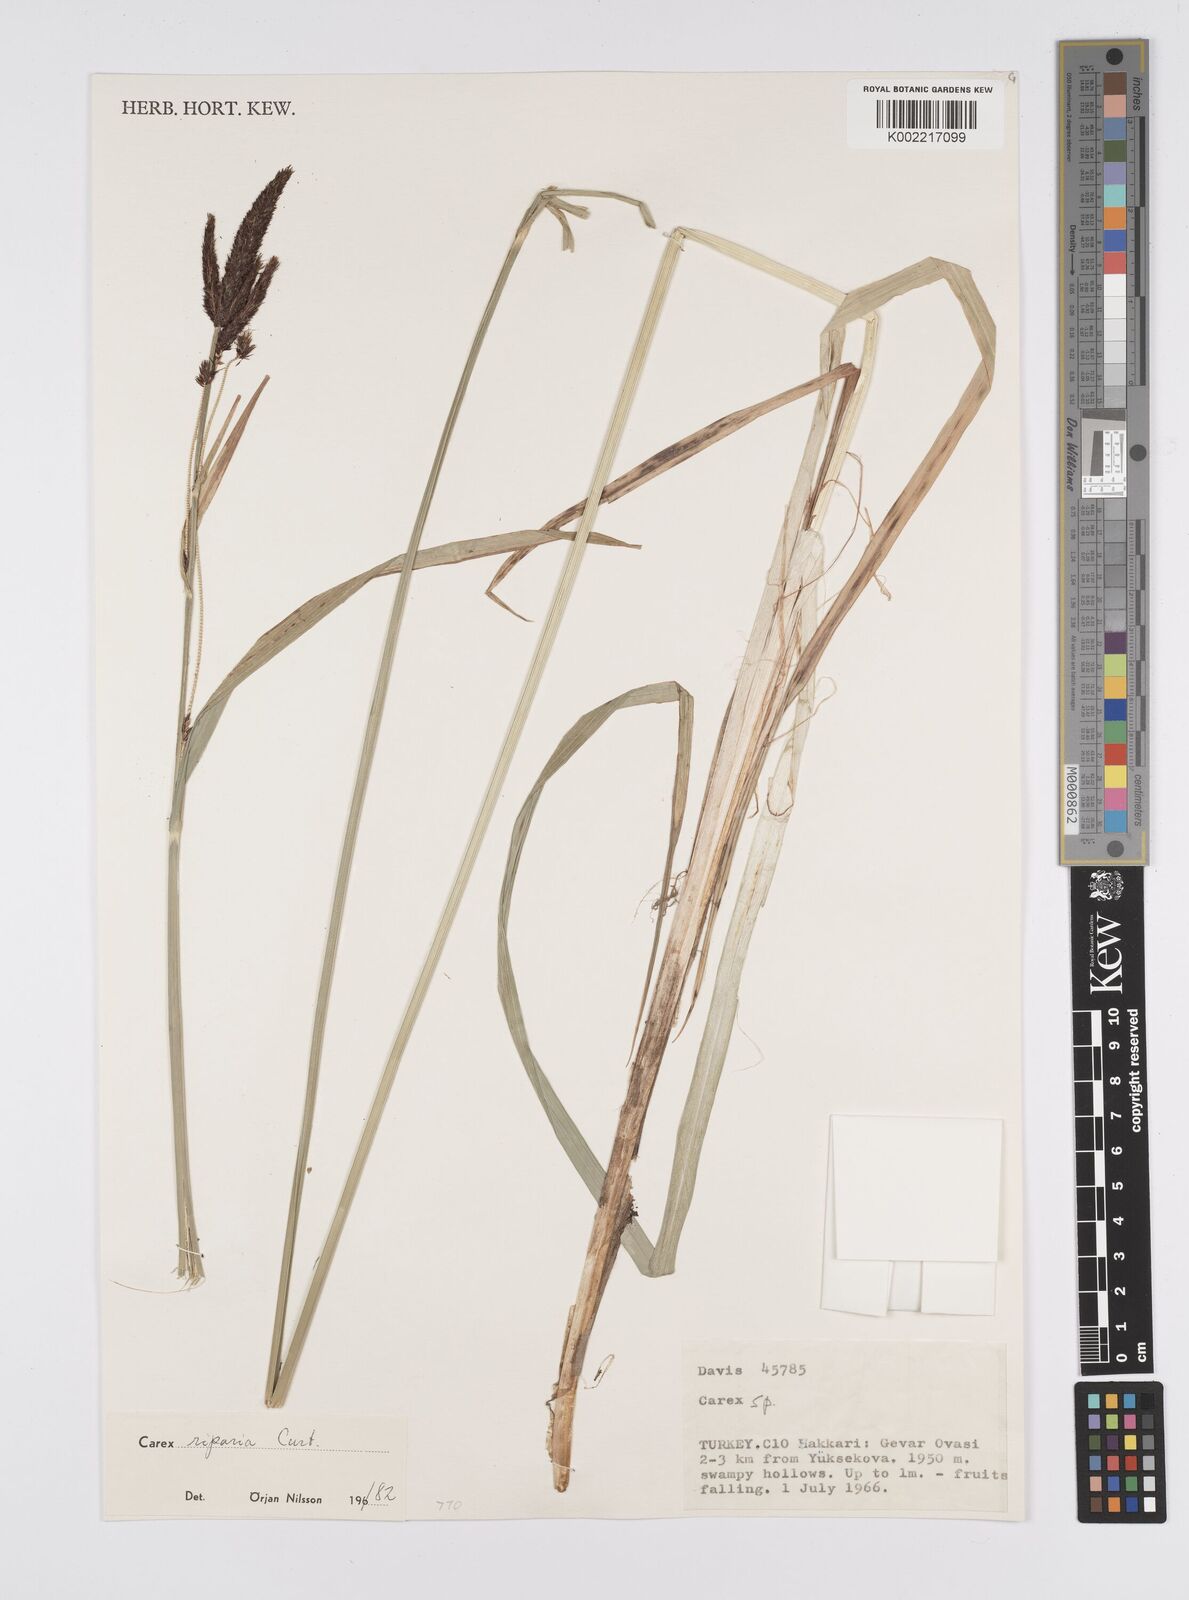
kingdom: Plantae
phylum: Tracheophyta
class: Liliopsida
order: Poales
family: Cyperaceae
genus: Carex
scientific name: Carex riparia
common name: Greater pond-sedge
